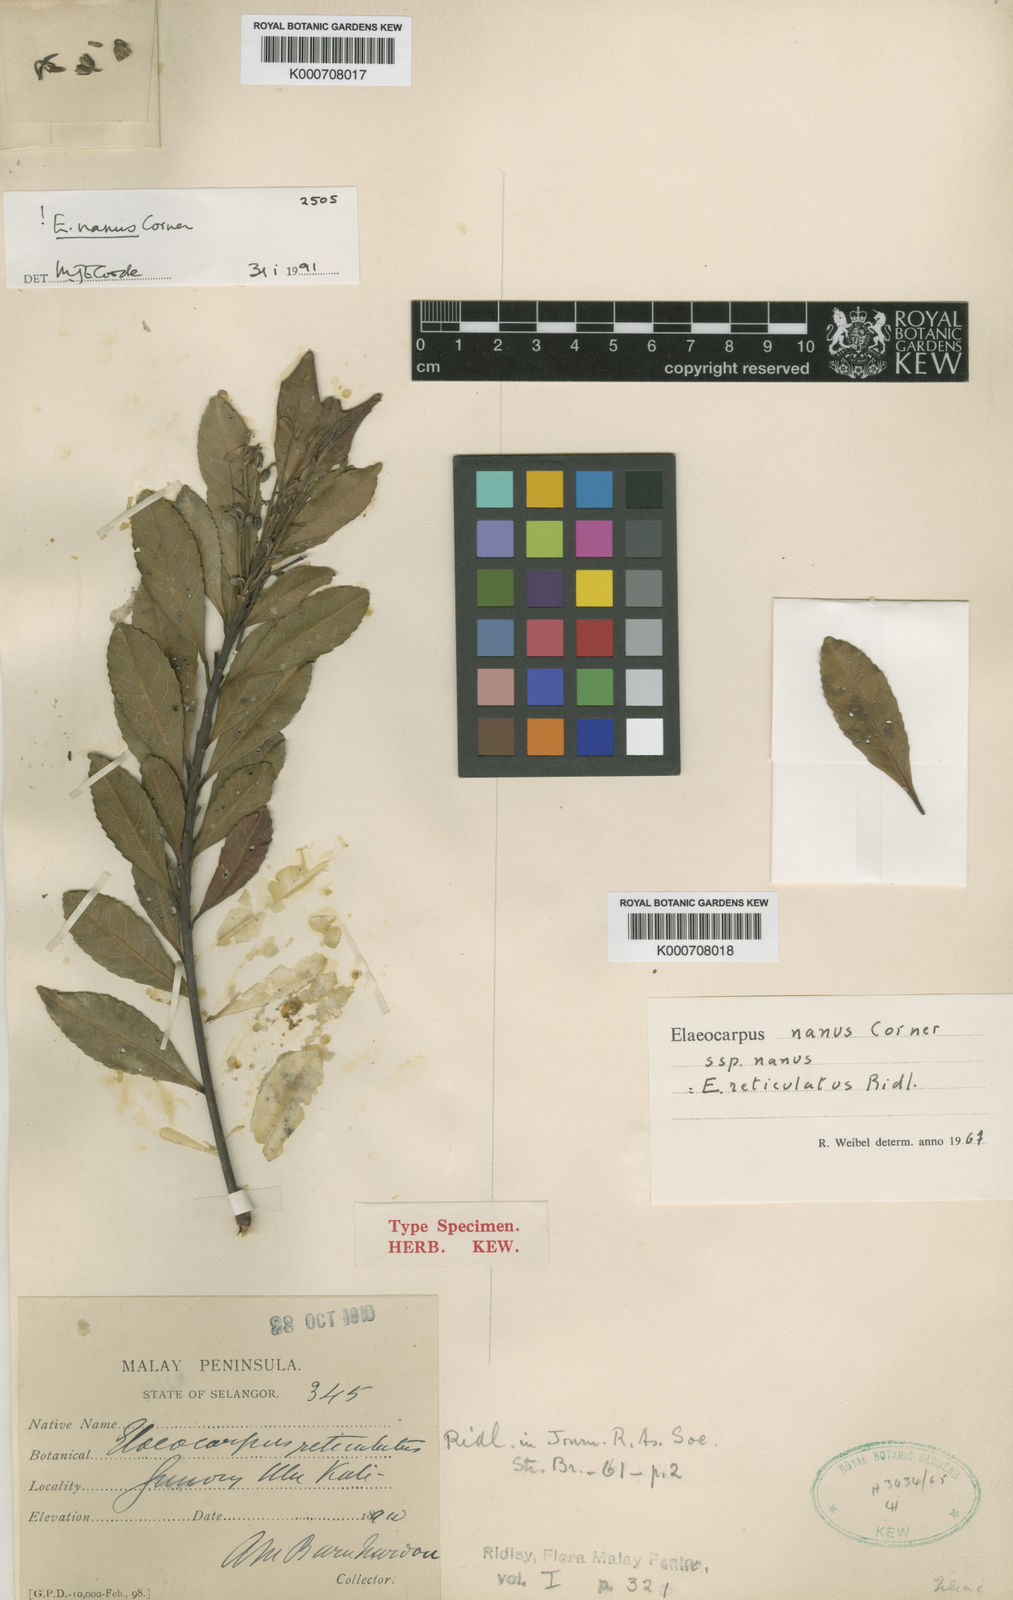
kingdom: Plantae
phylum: Tracheophyta
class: Magnoliopsida
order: Oxalidales
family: Elaeocarpaceae
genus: Elaeocarpus
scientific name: Elaeocarpus nanus
